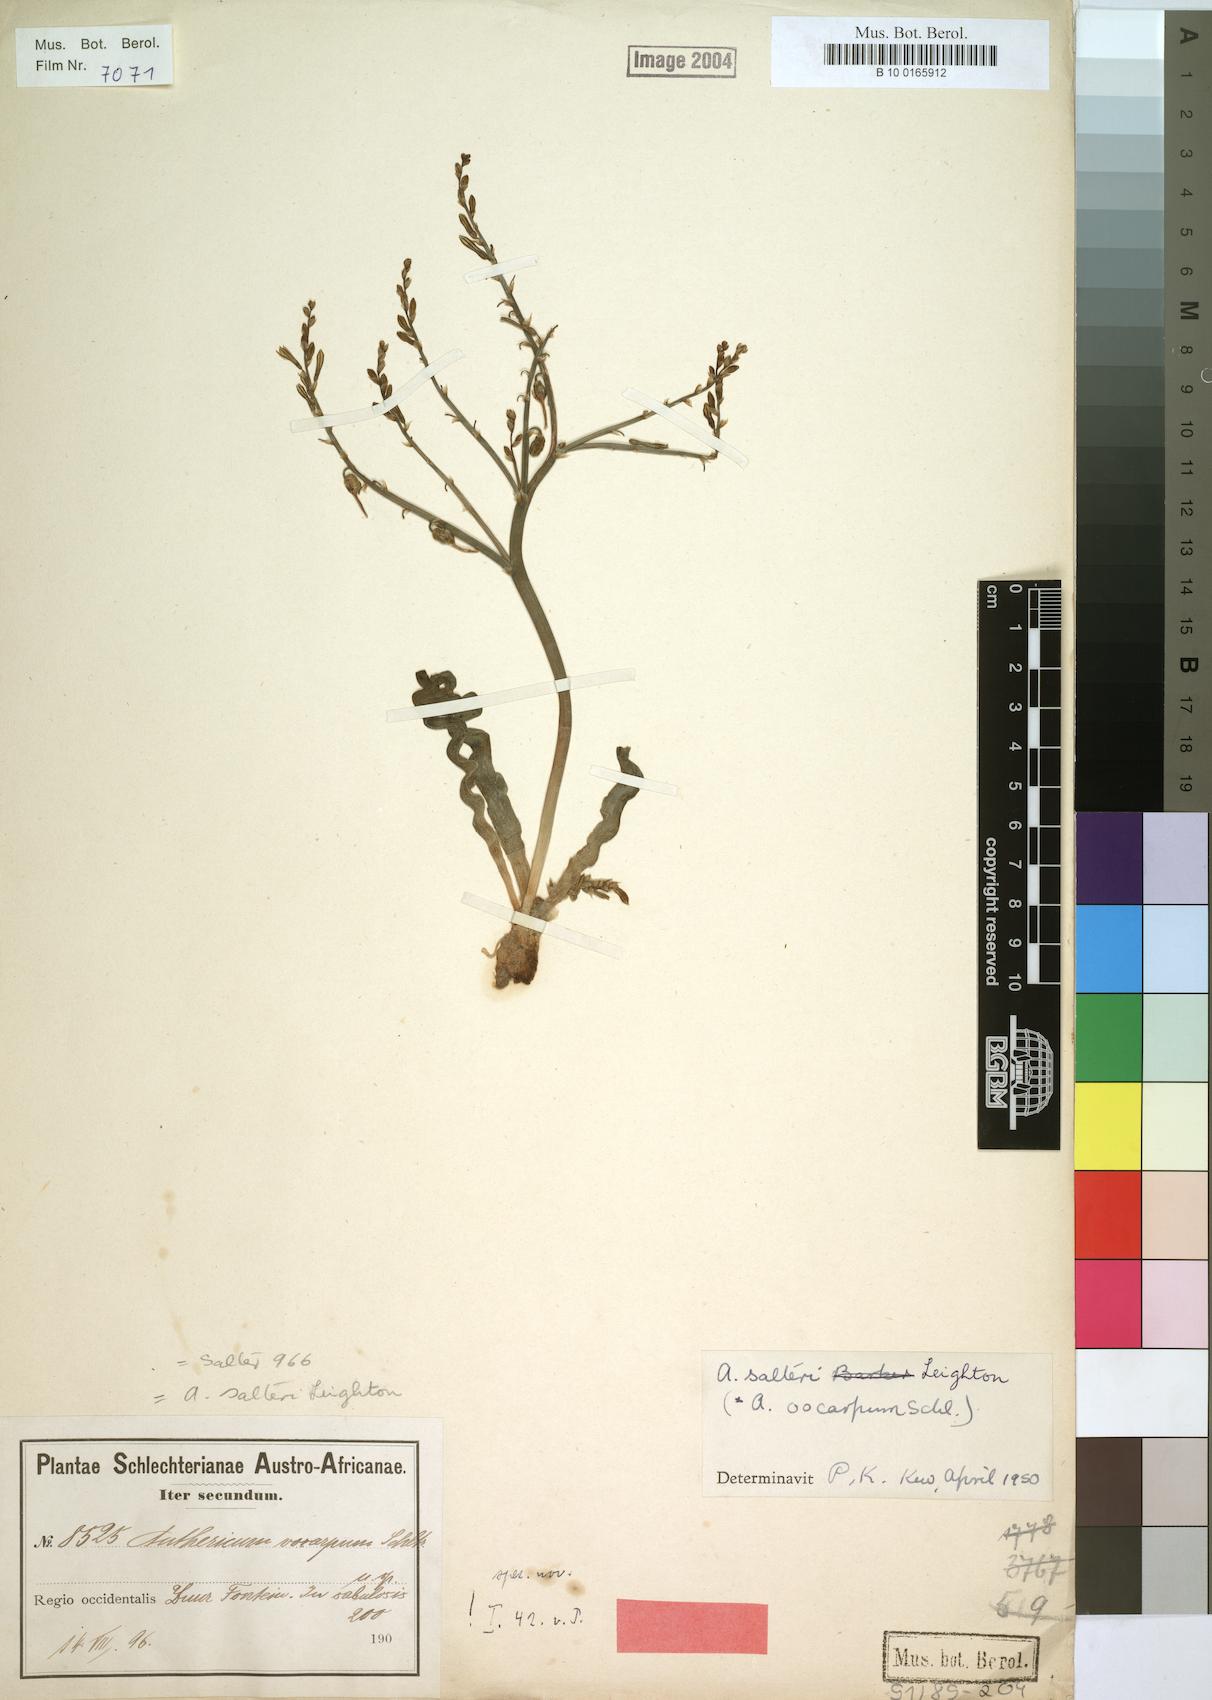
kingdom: Plantae
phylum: Tracheophyta
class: Liliopsida
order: Asparagales
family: Asphodelaceae
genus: Trachyandra
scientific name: Trachyandra tortilis
